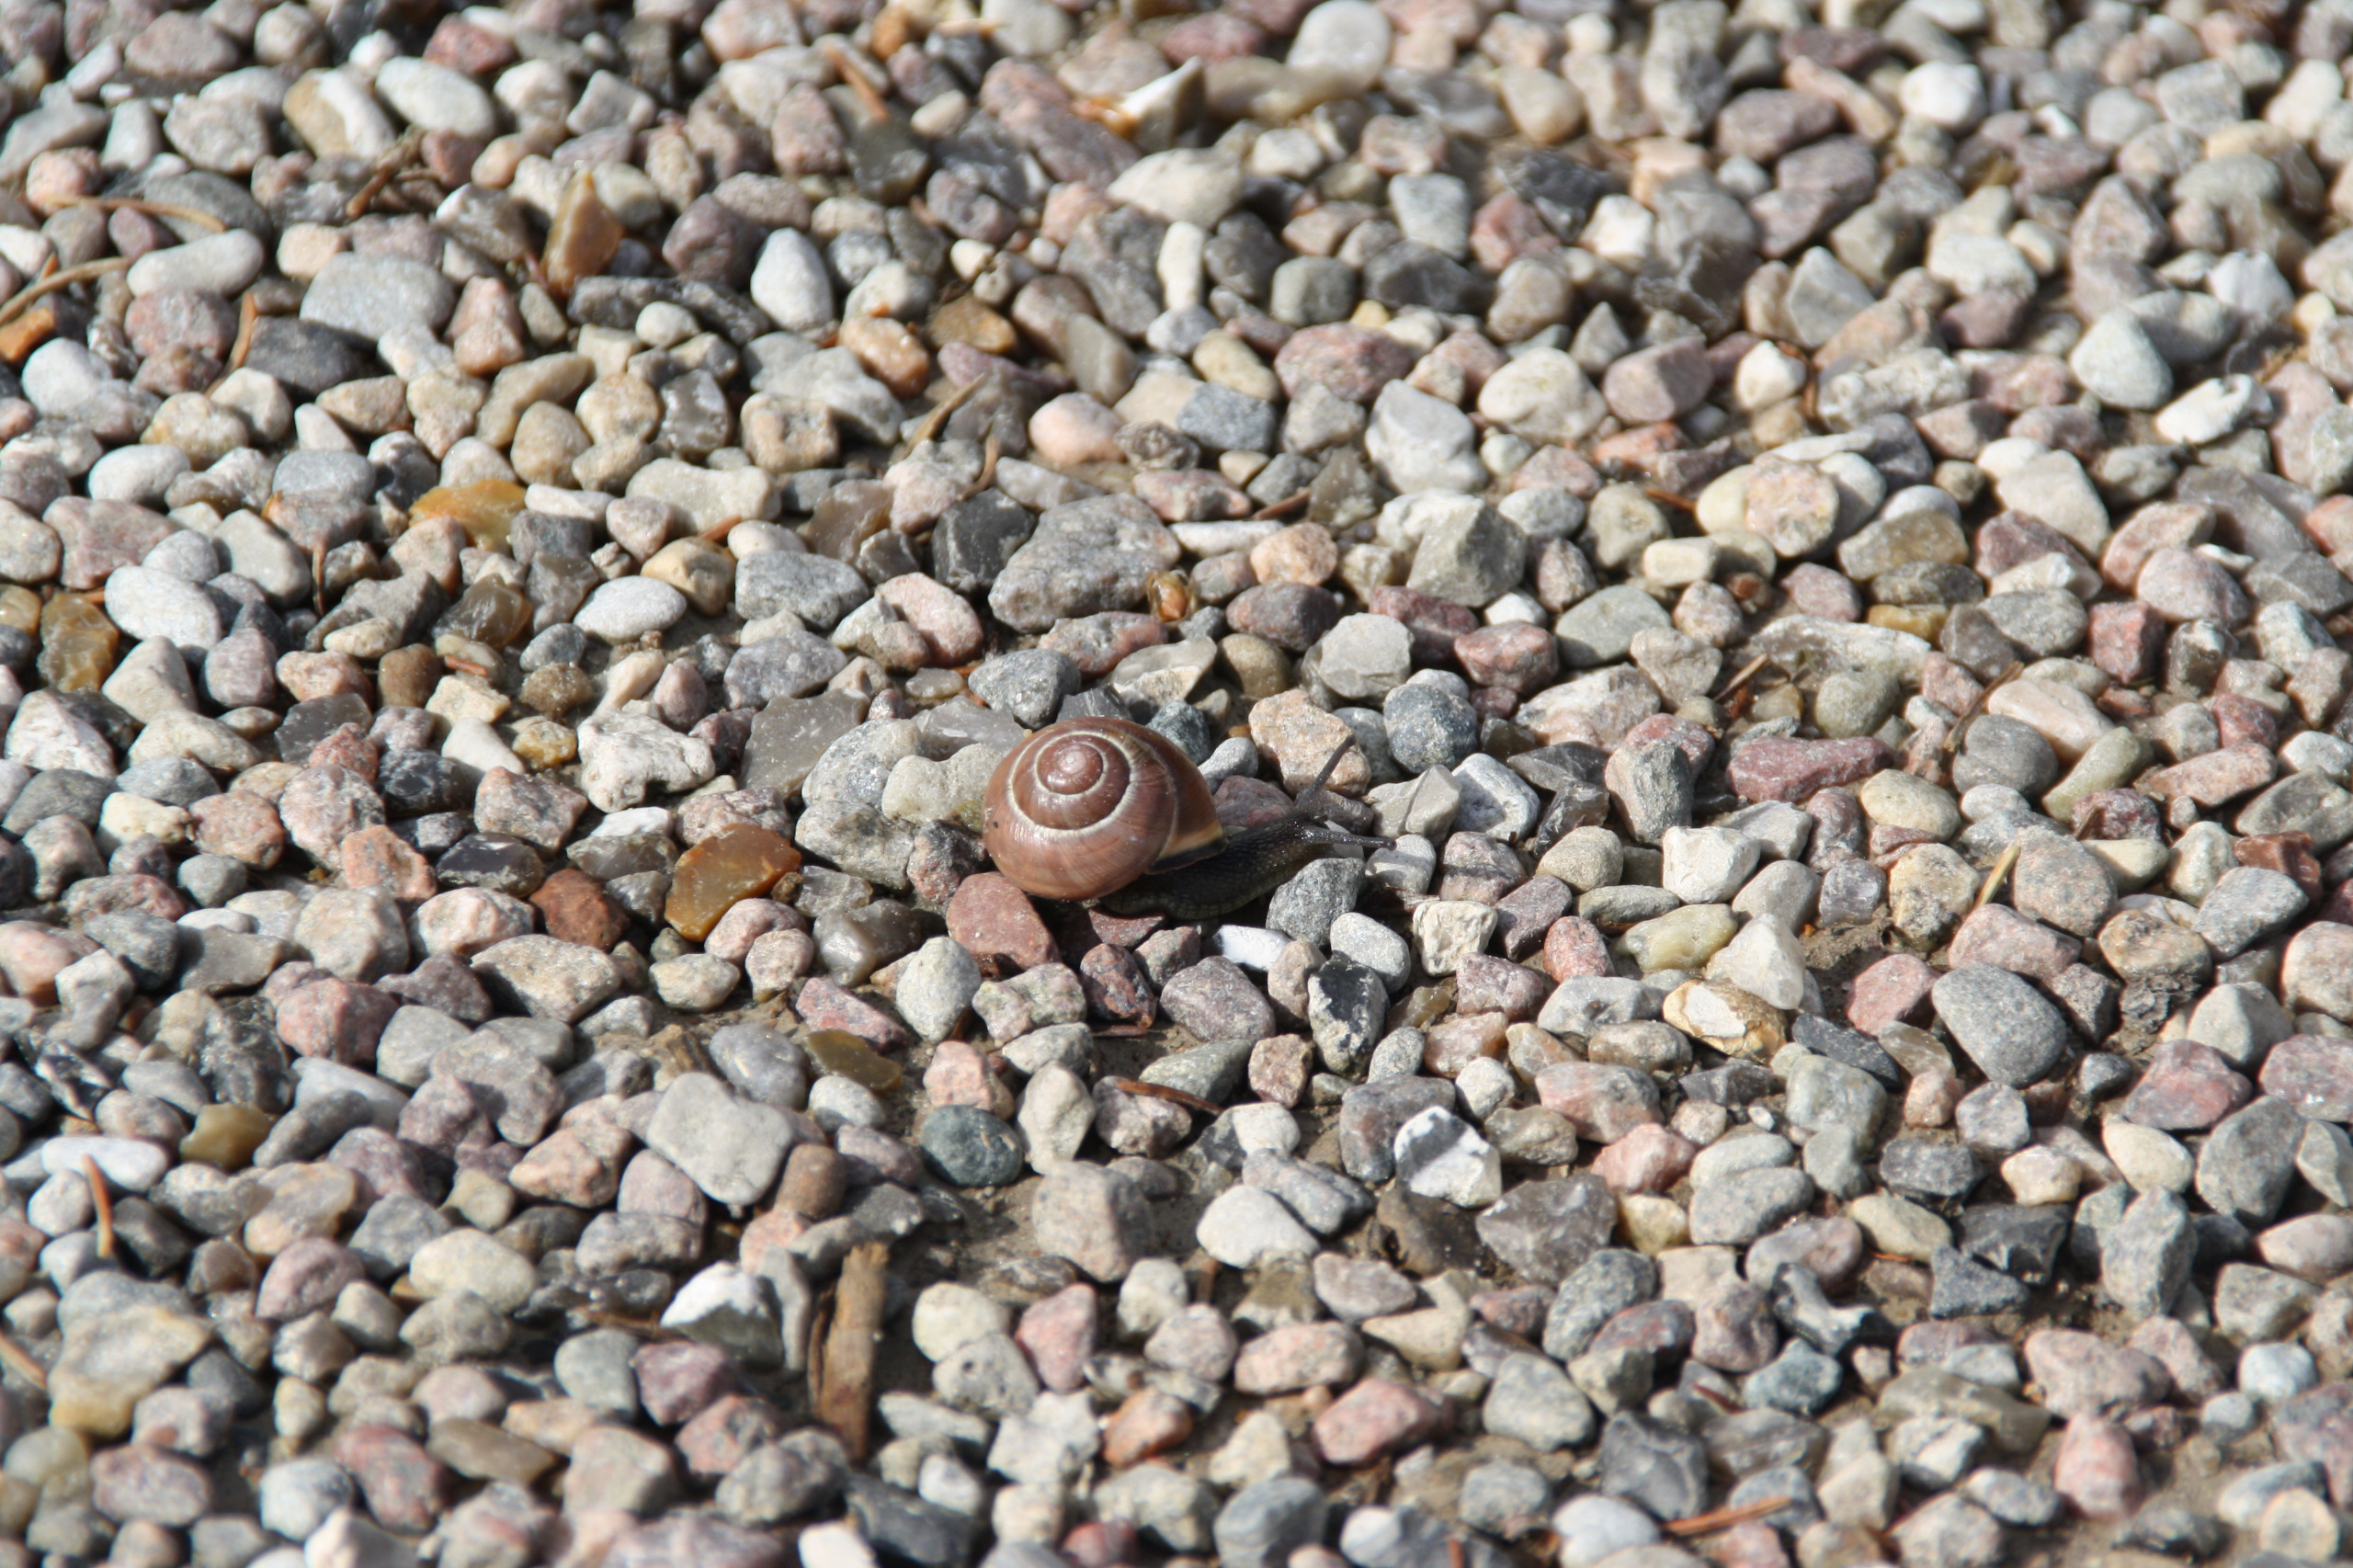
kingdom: Animalia
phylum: Mollusca
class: Gastropoda
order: Stylommatophora
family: Helicidae
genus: Cepaea
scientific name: Cepaea nemoralis
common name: Lundsnegl
